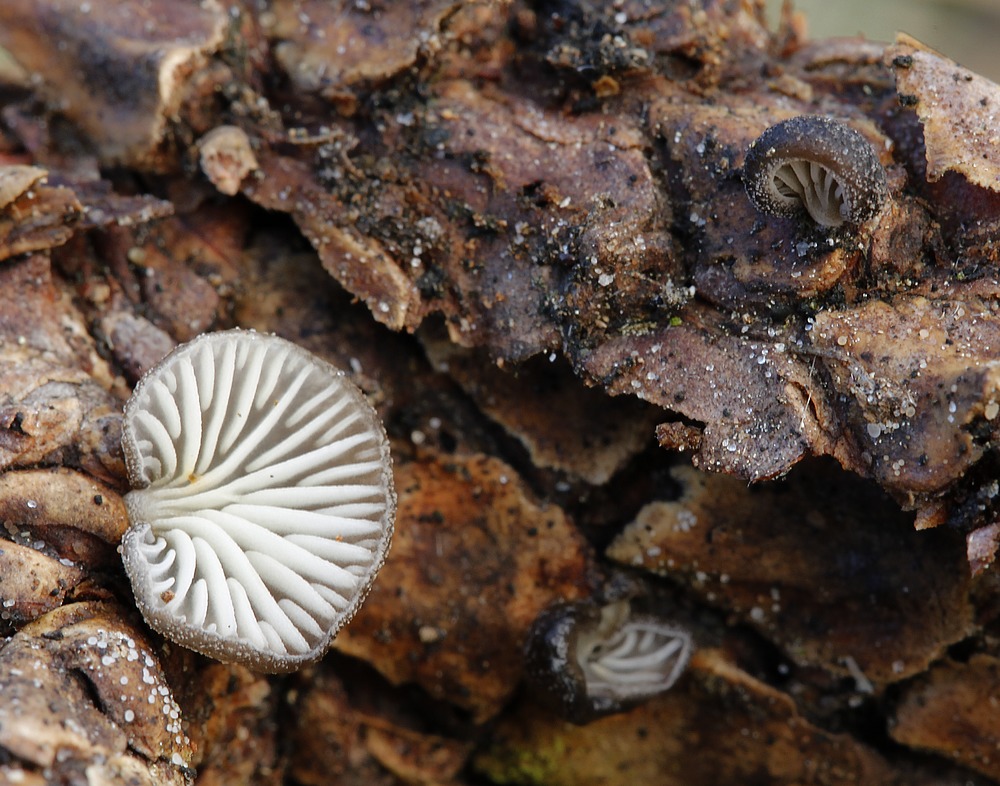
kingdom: Fungi
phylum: Basidiomycota
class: Agaricomycetes
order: Agaricales
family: Pleurotaceae
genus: Hohenbuehelia
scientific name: Hohenbuehelia fluxilis
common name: pile-filthat
